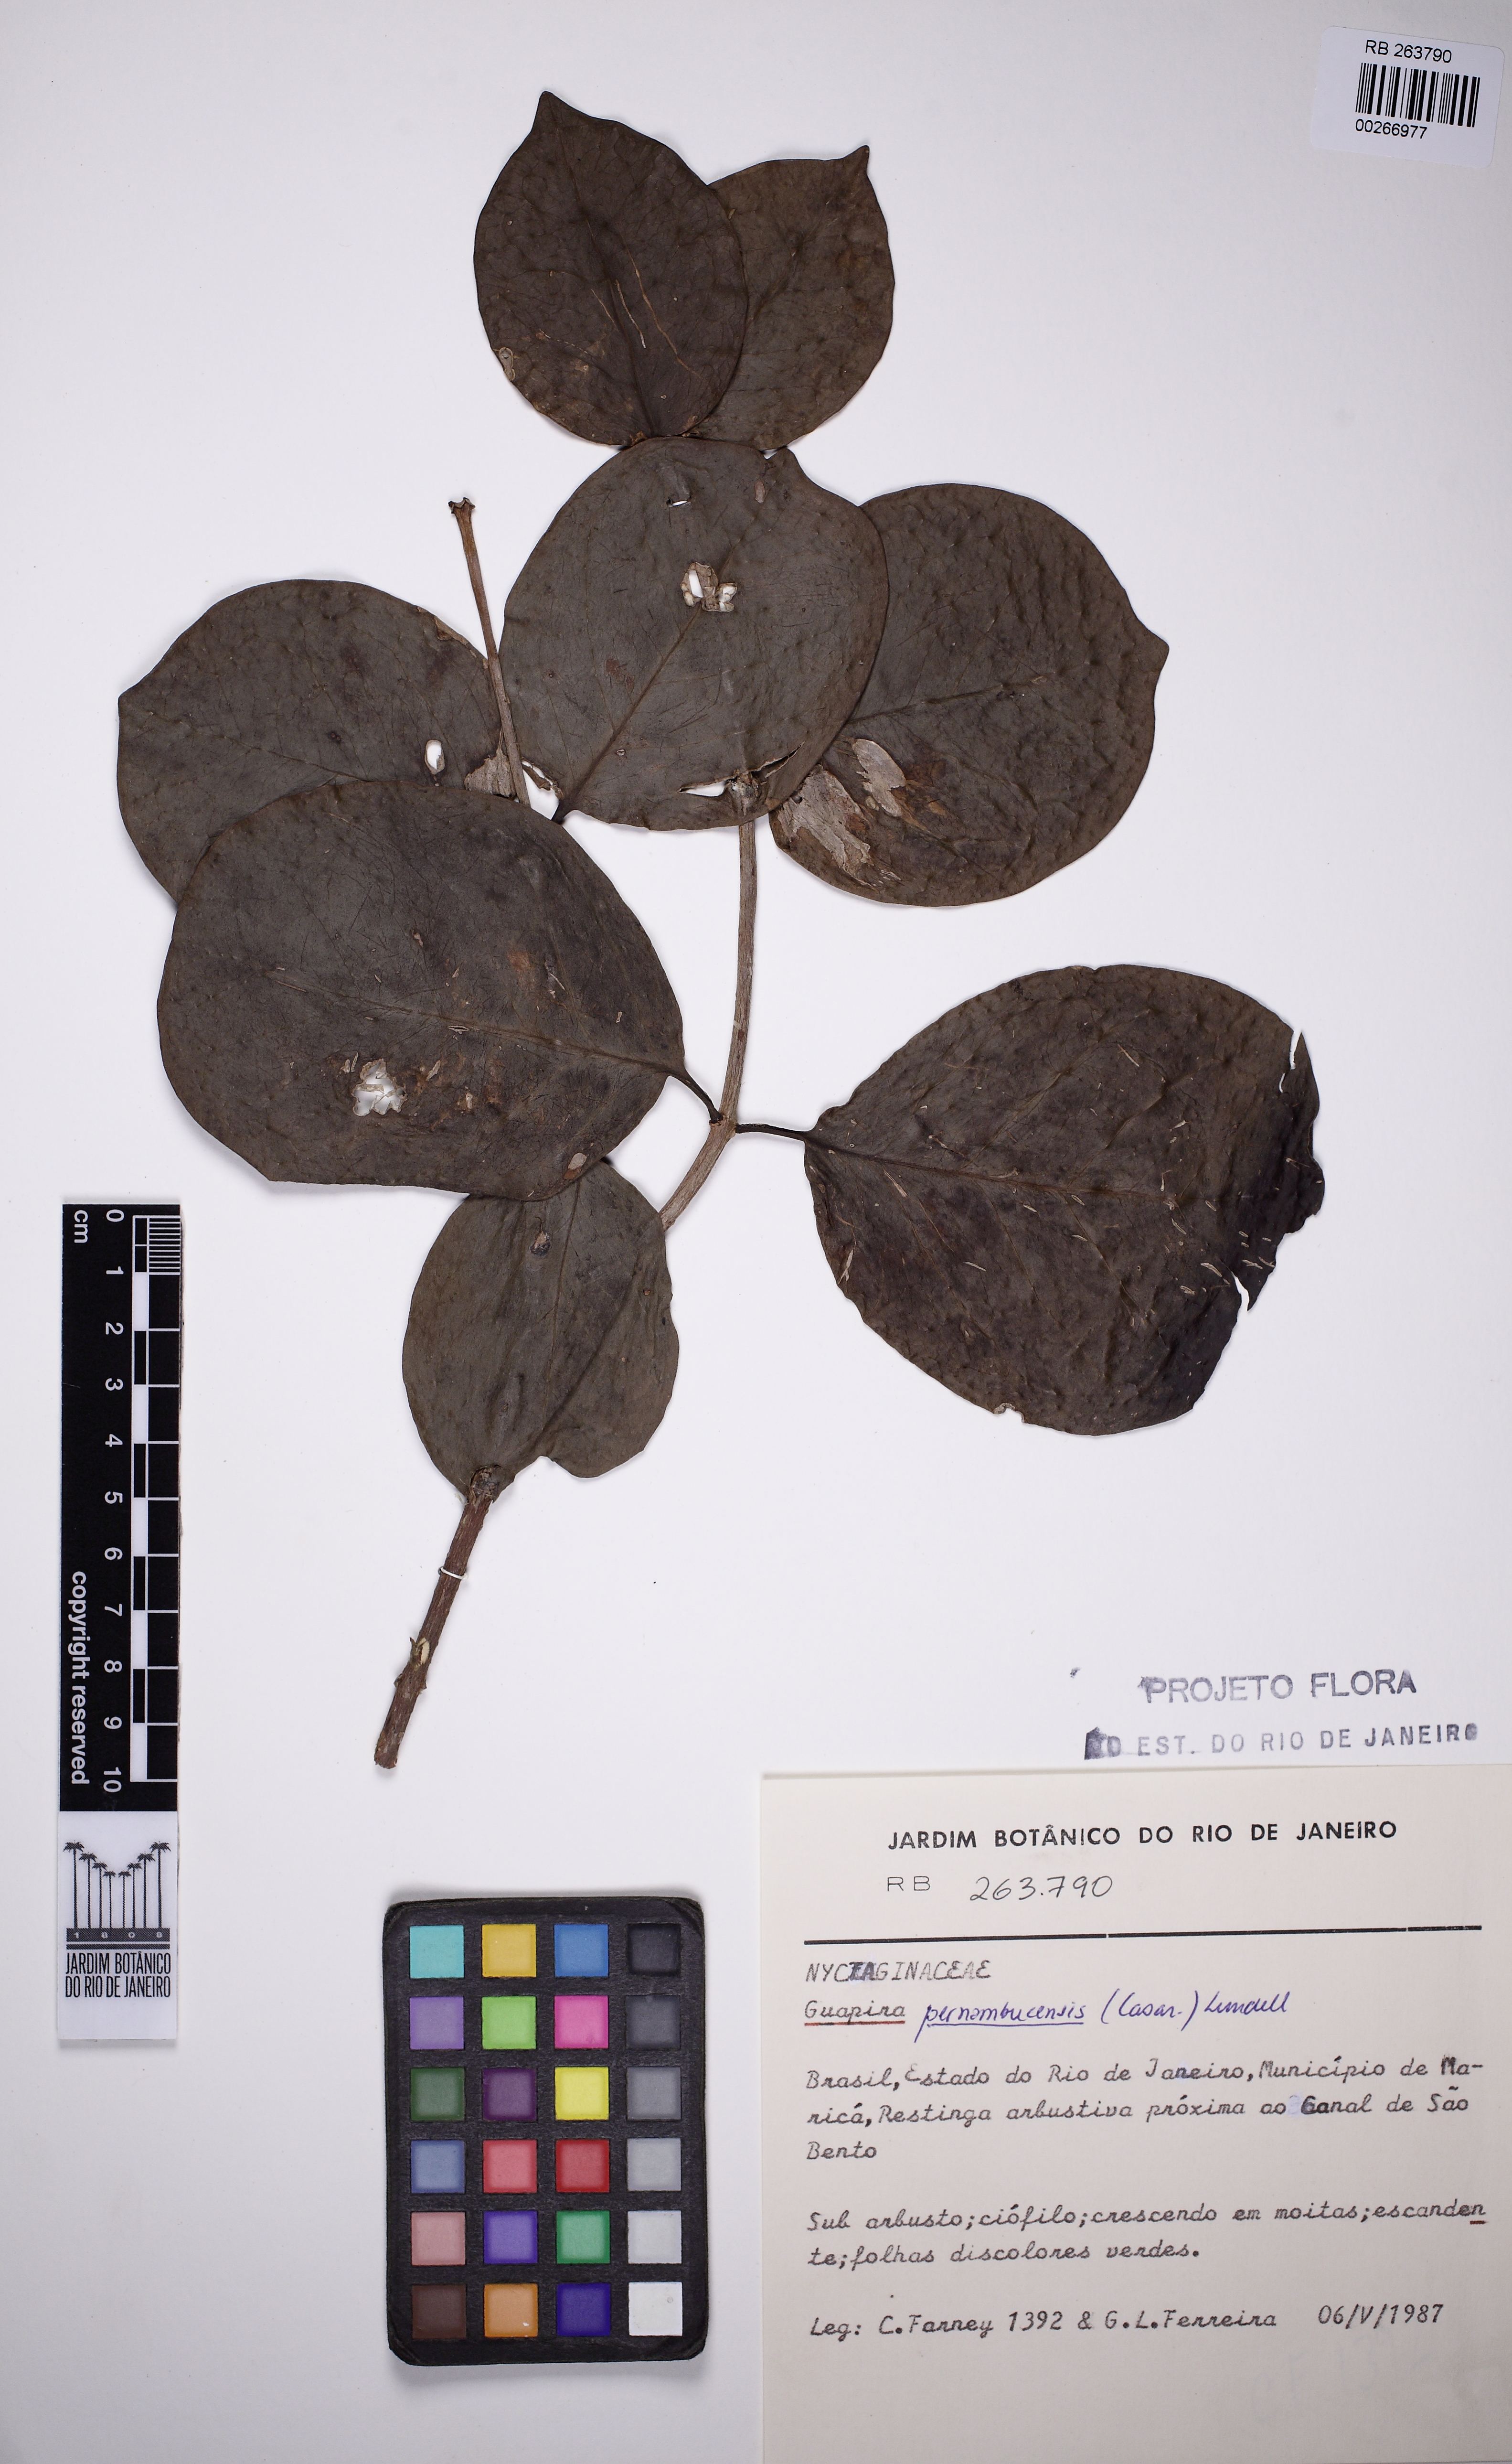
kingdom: Plantae
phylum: Tracheophyta
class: Magnoliopsida
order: Caryophyllales
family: Nyctaginaceae
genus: Guapira
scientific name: Guapira pernambucensis
